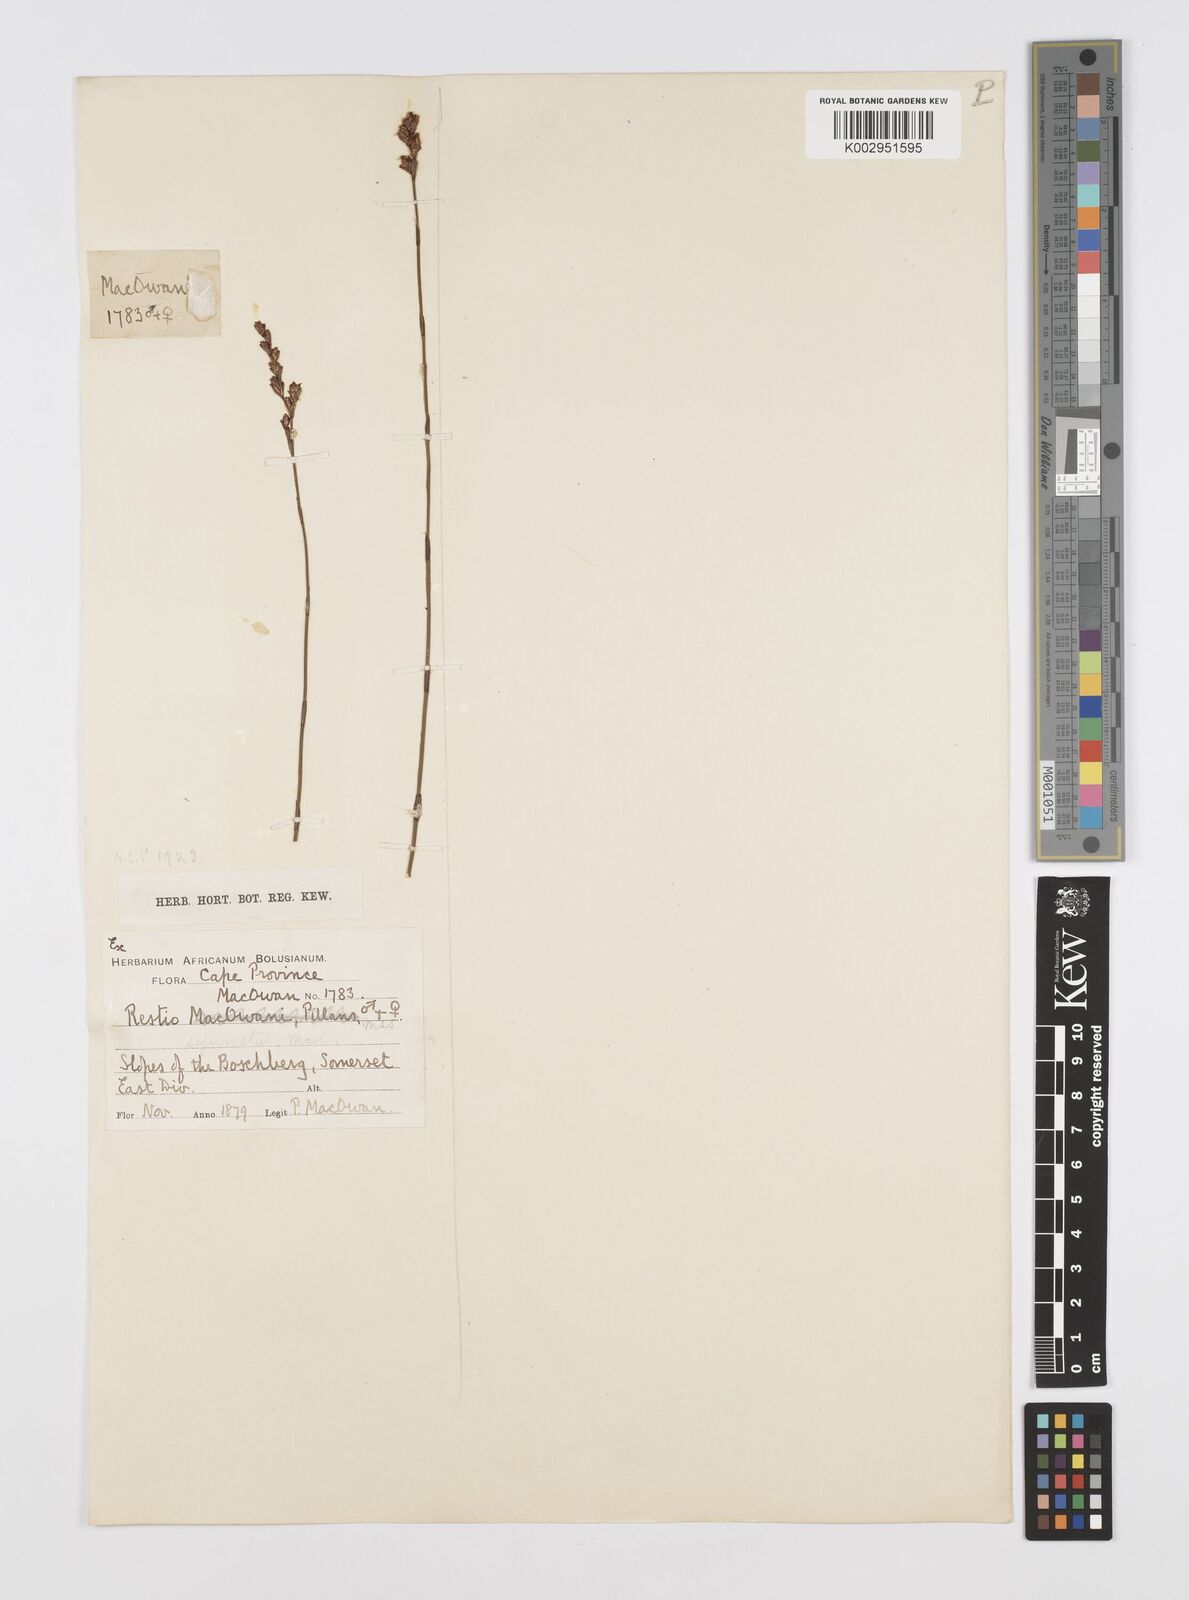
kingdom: Plantae
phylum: Tracheophyta
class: Liliopsida
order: Poales
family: Restionaceae
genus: Restio
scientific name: Restio sejunctus
